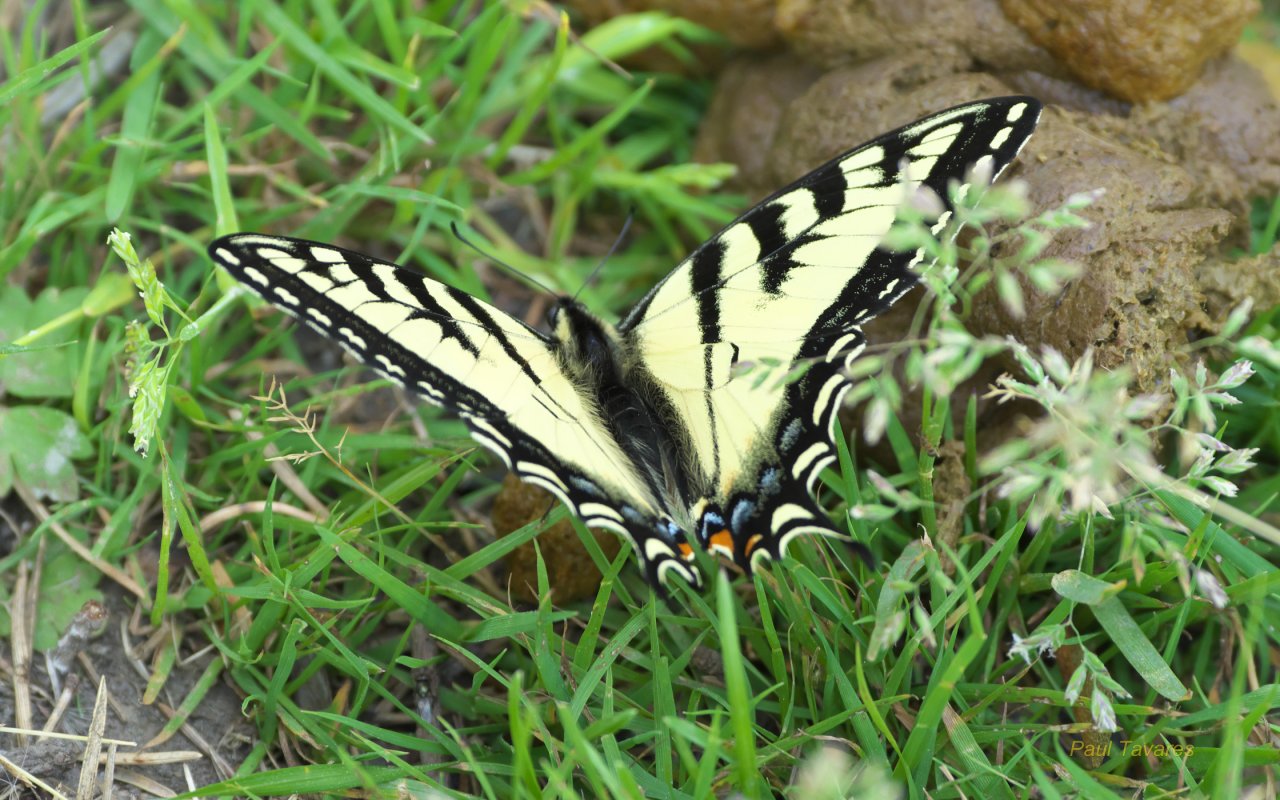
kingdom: Animalia
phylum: Arthropoda
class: Insecta
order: Lepidoptera
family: Papilionidae
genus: Pterourus
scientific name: Pterourus canadensis
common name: Canadian Tiger Swallowtail
